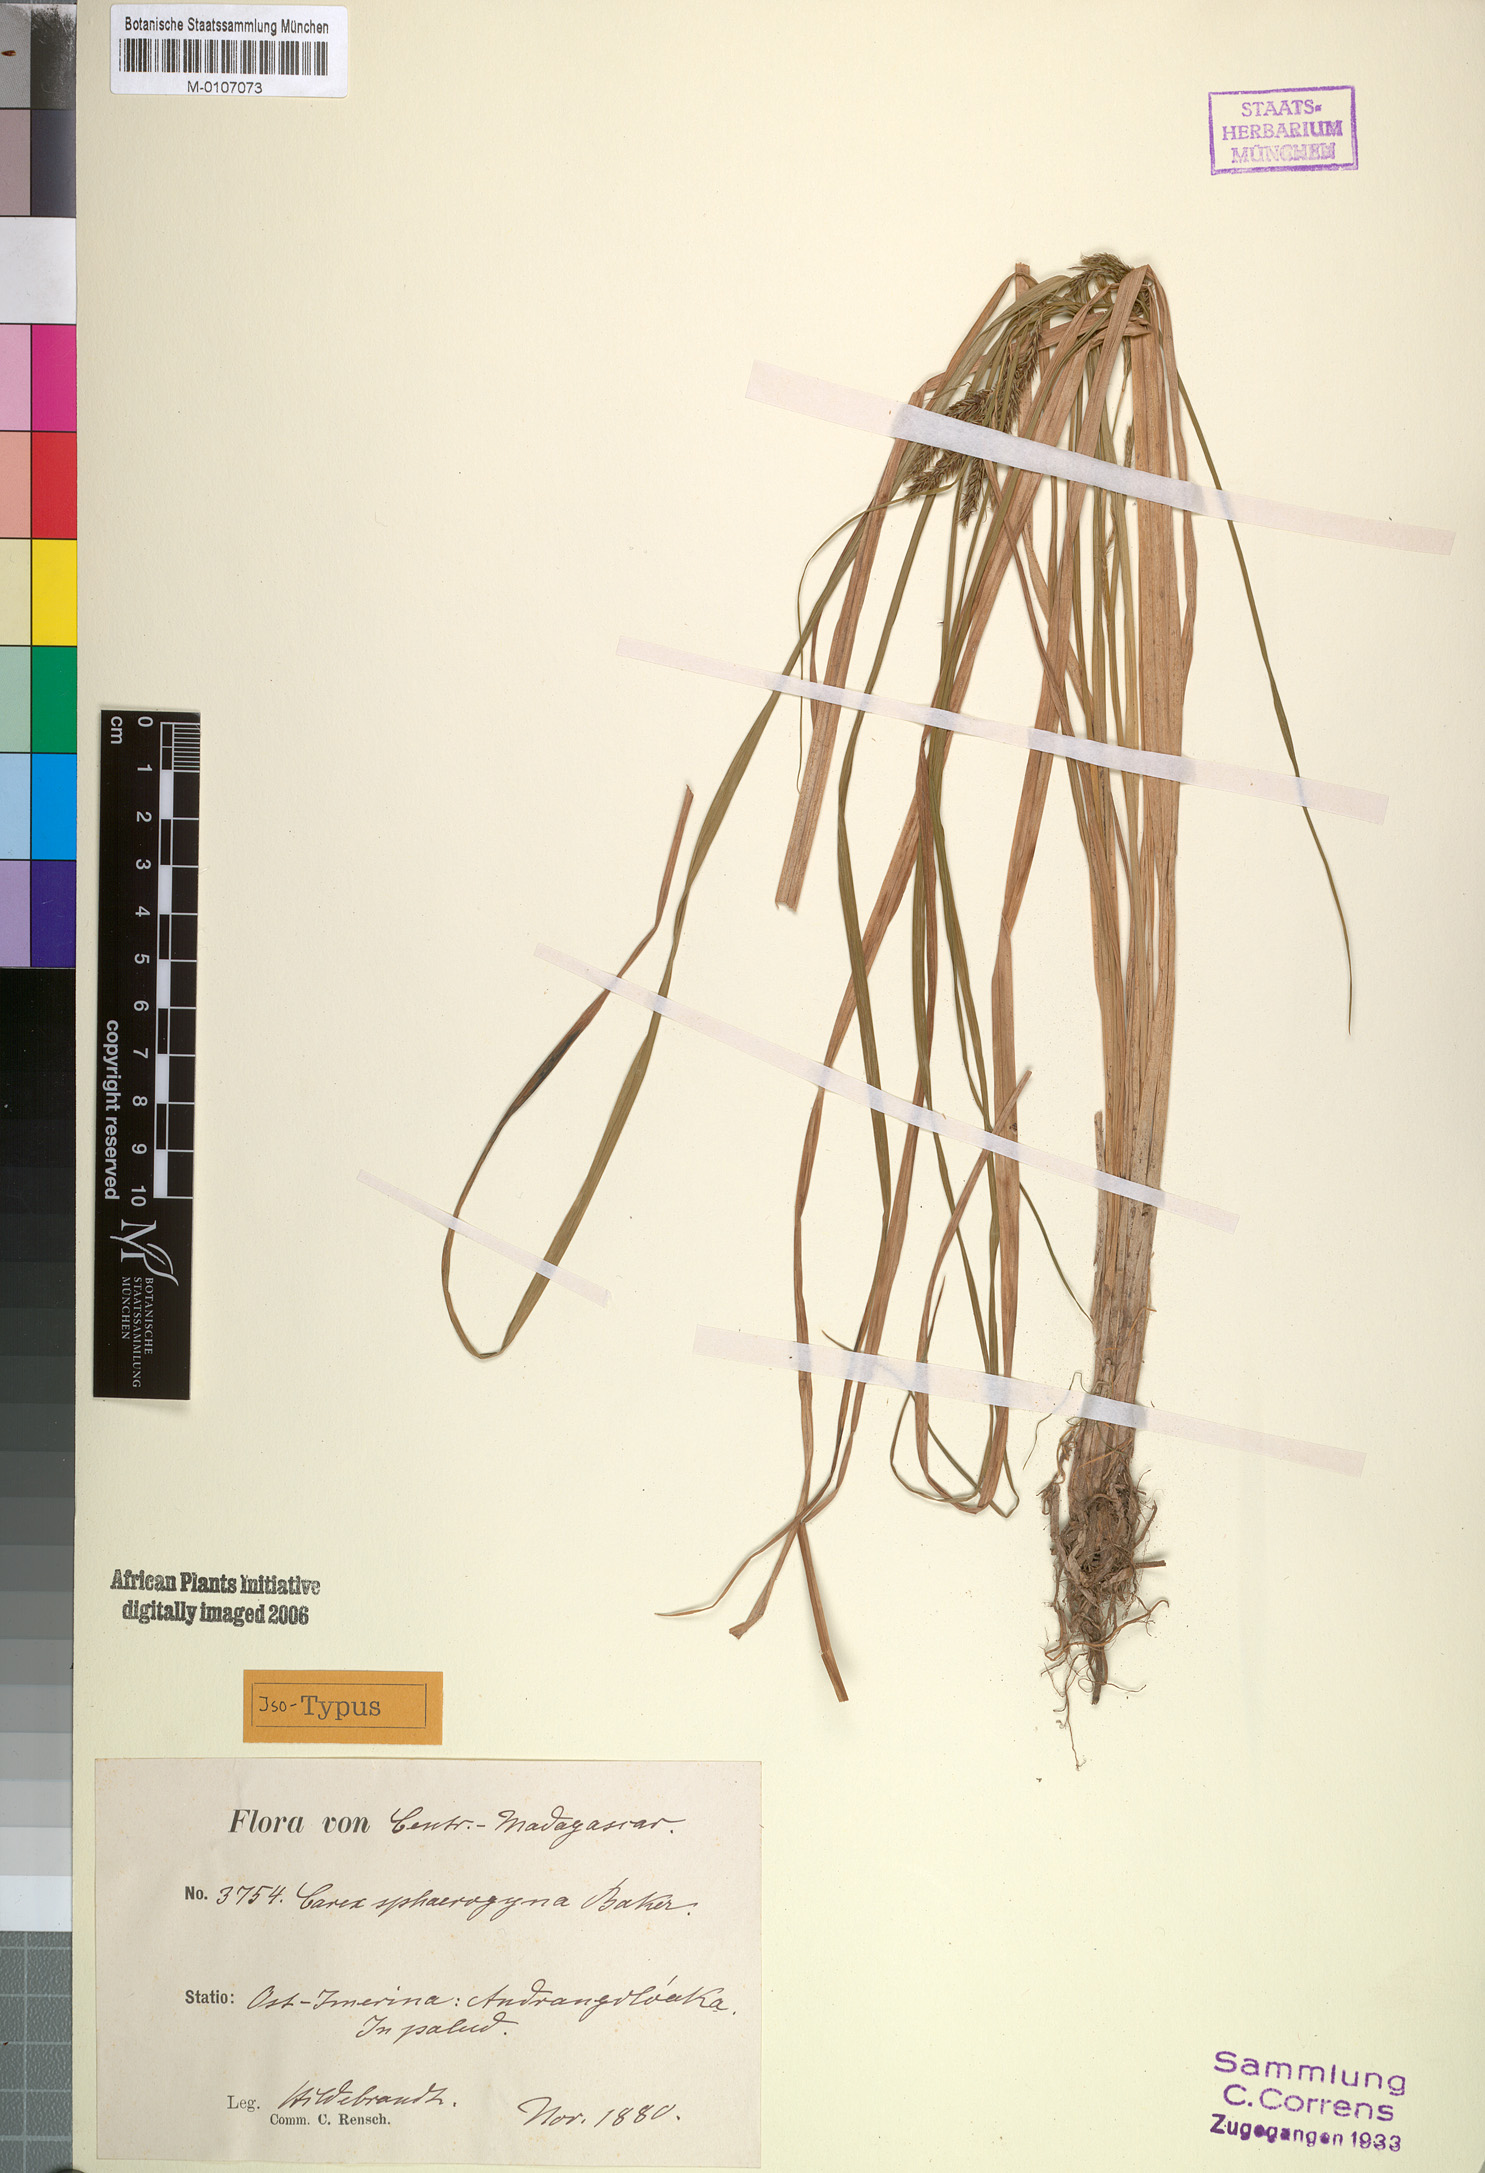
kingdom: Plantae
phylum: Tracheophyta
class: Liliopsida
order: Poales
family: Cyperaceae
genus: Carex
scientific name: Carex sphaerogyna
